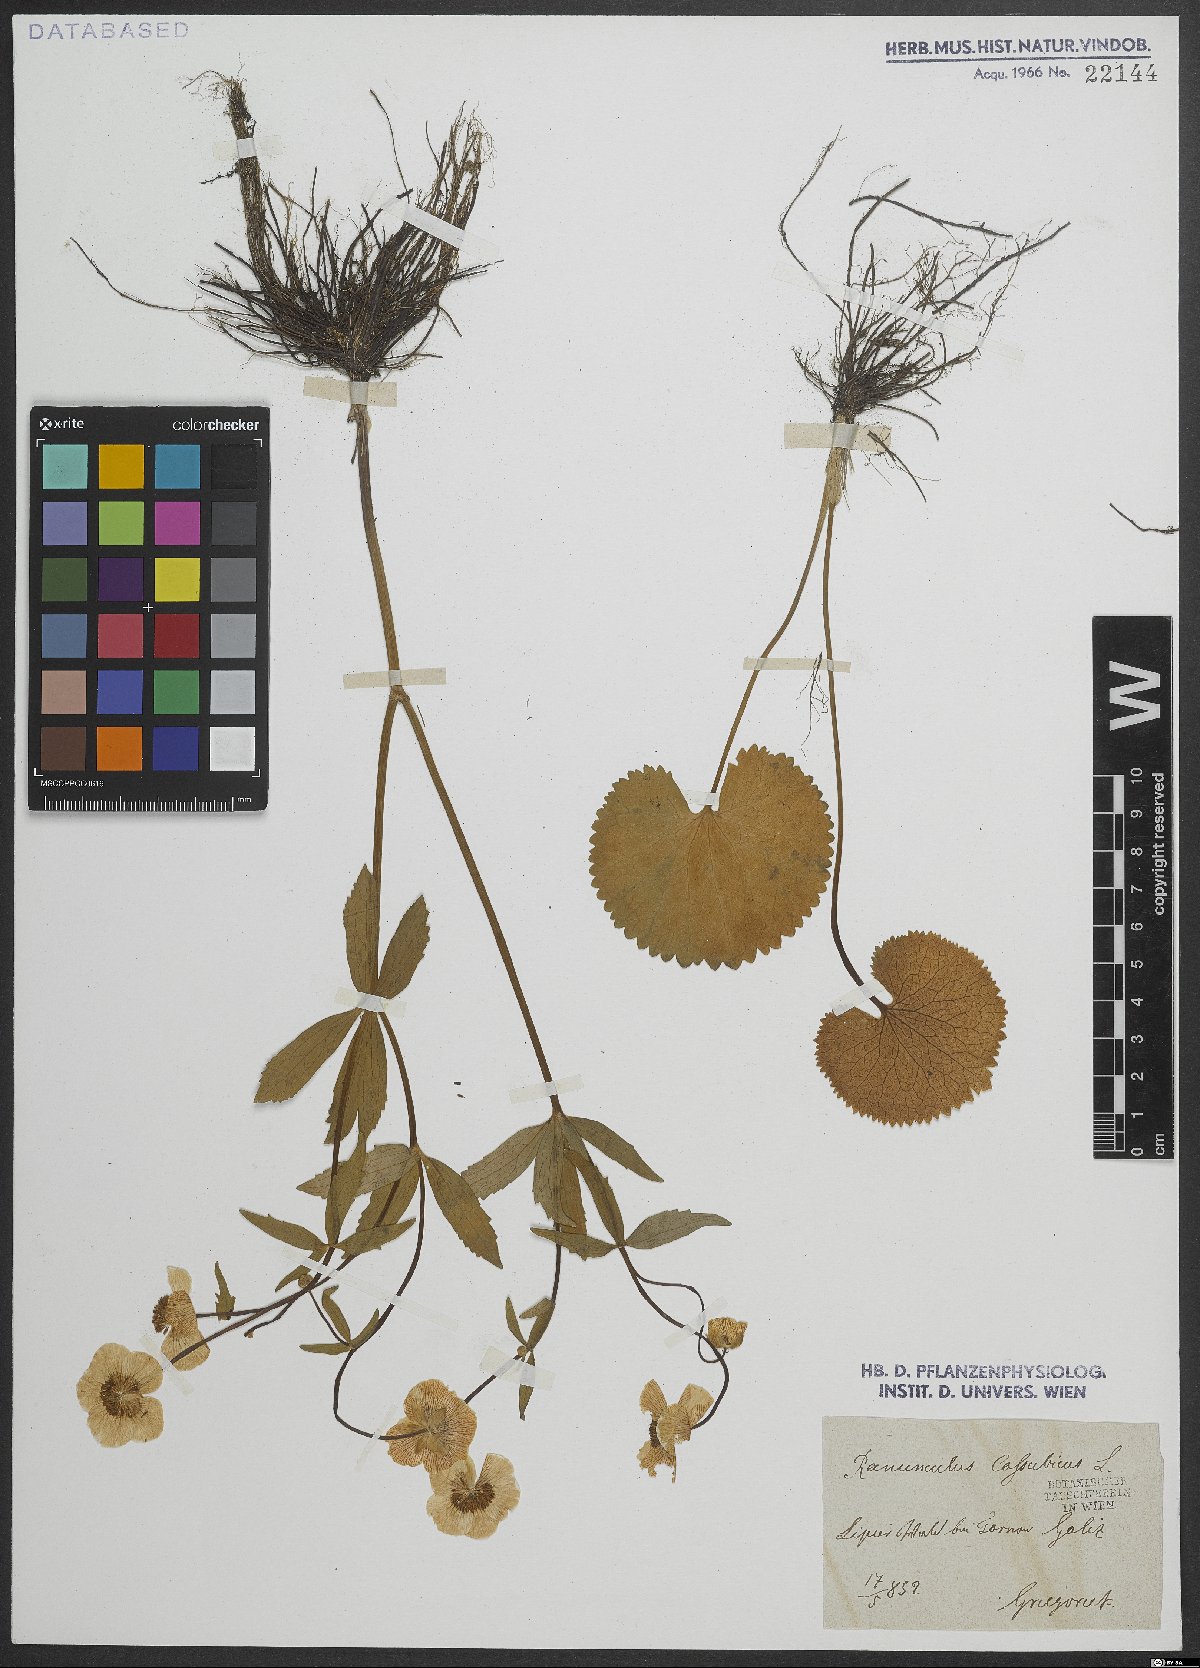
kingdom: Plantae
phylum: Tracheophyta
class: Magnoliopsida
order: Ranunculales
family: Ranunculaceae
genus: Ranunculus
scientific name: Ranunculus cassubicus
